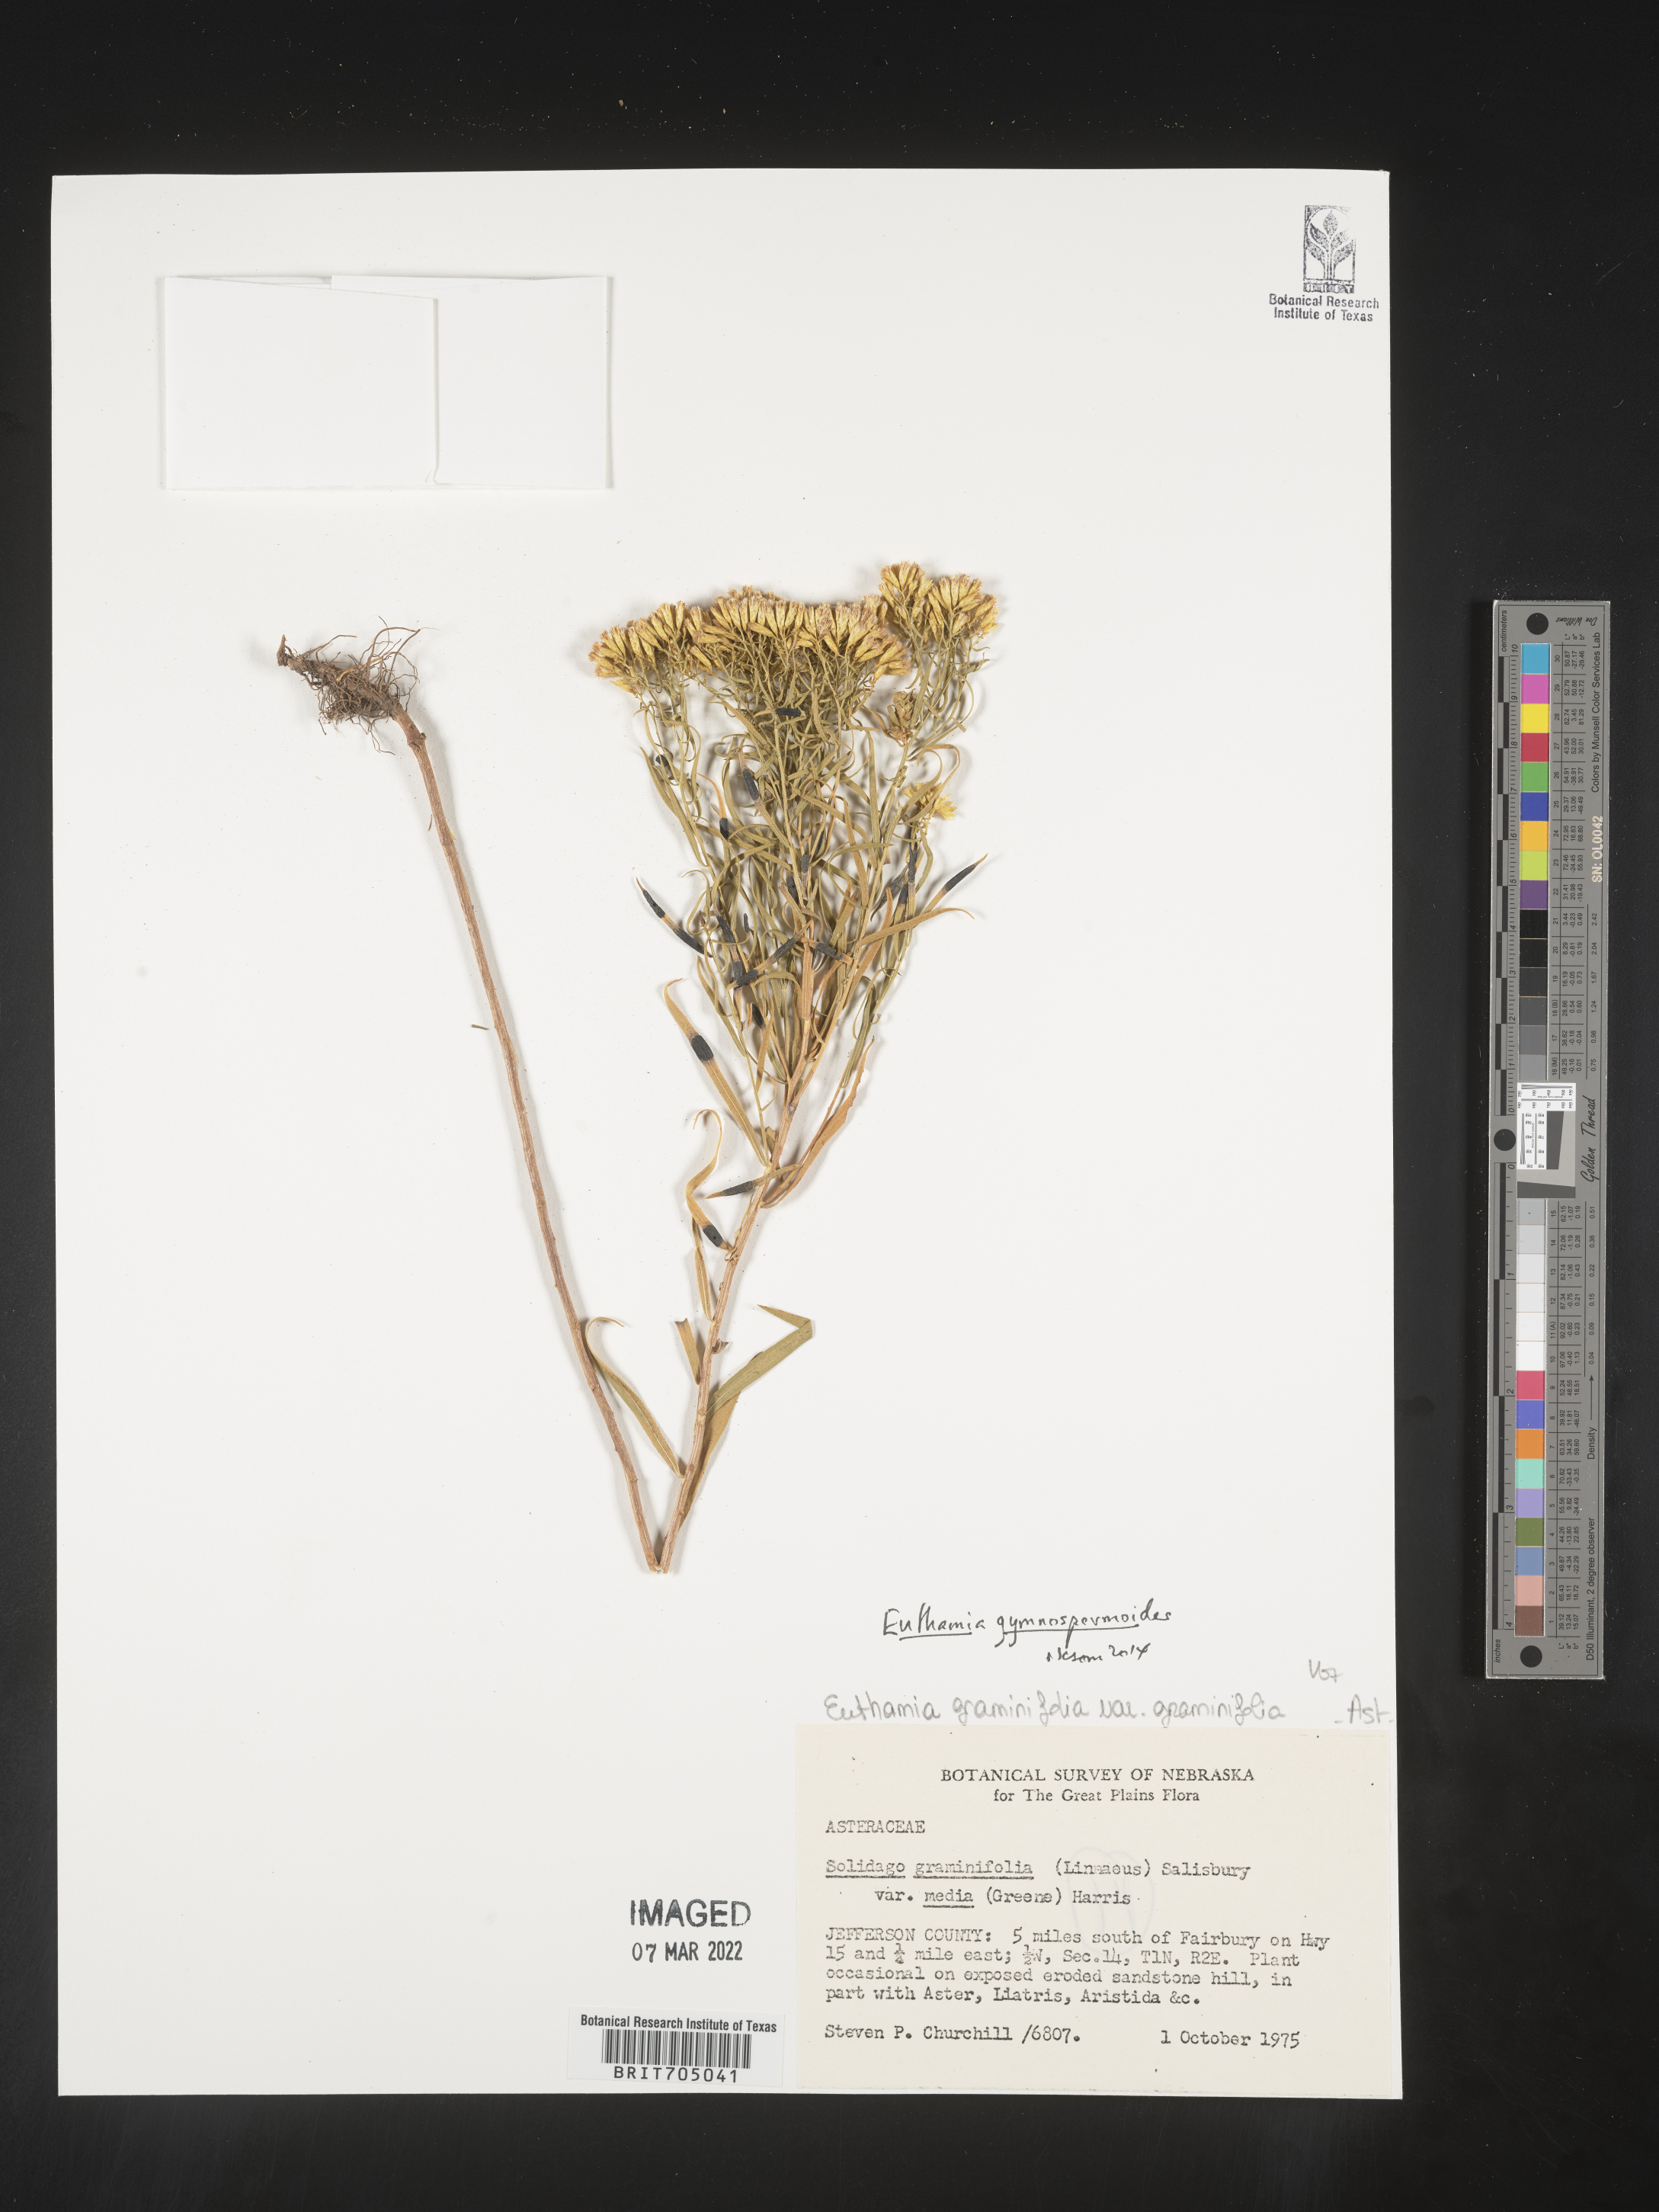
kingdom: Plantae
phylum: Tracheophyta
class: Magnoliopsida
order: Asterales
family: Asteraceae
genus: Euthamia
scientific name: Euthamia gymnospermoides
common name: Great plains goldentop
